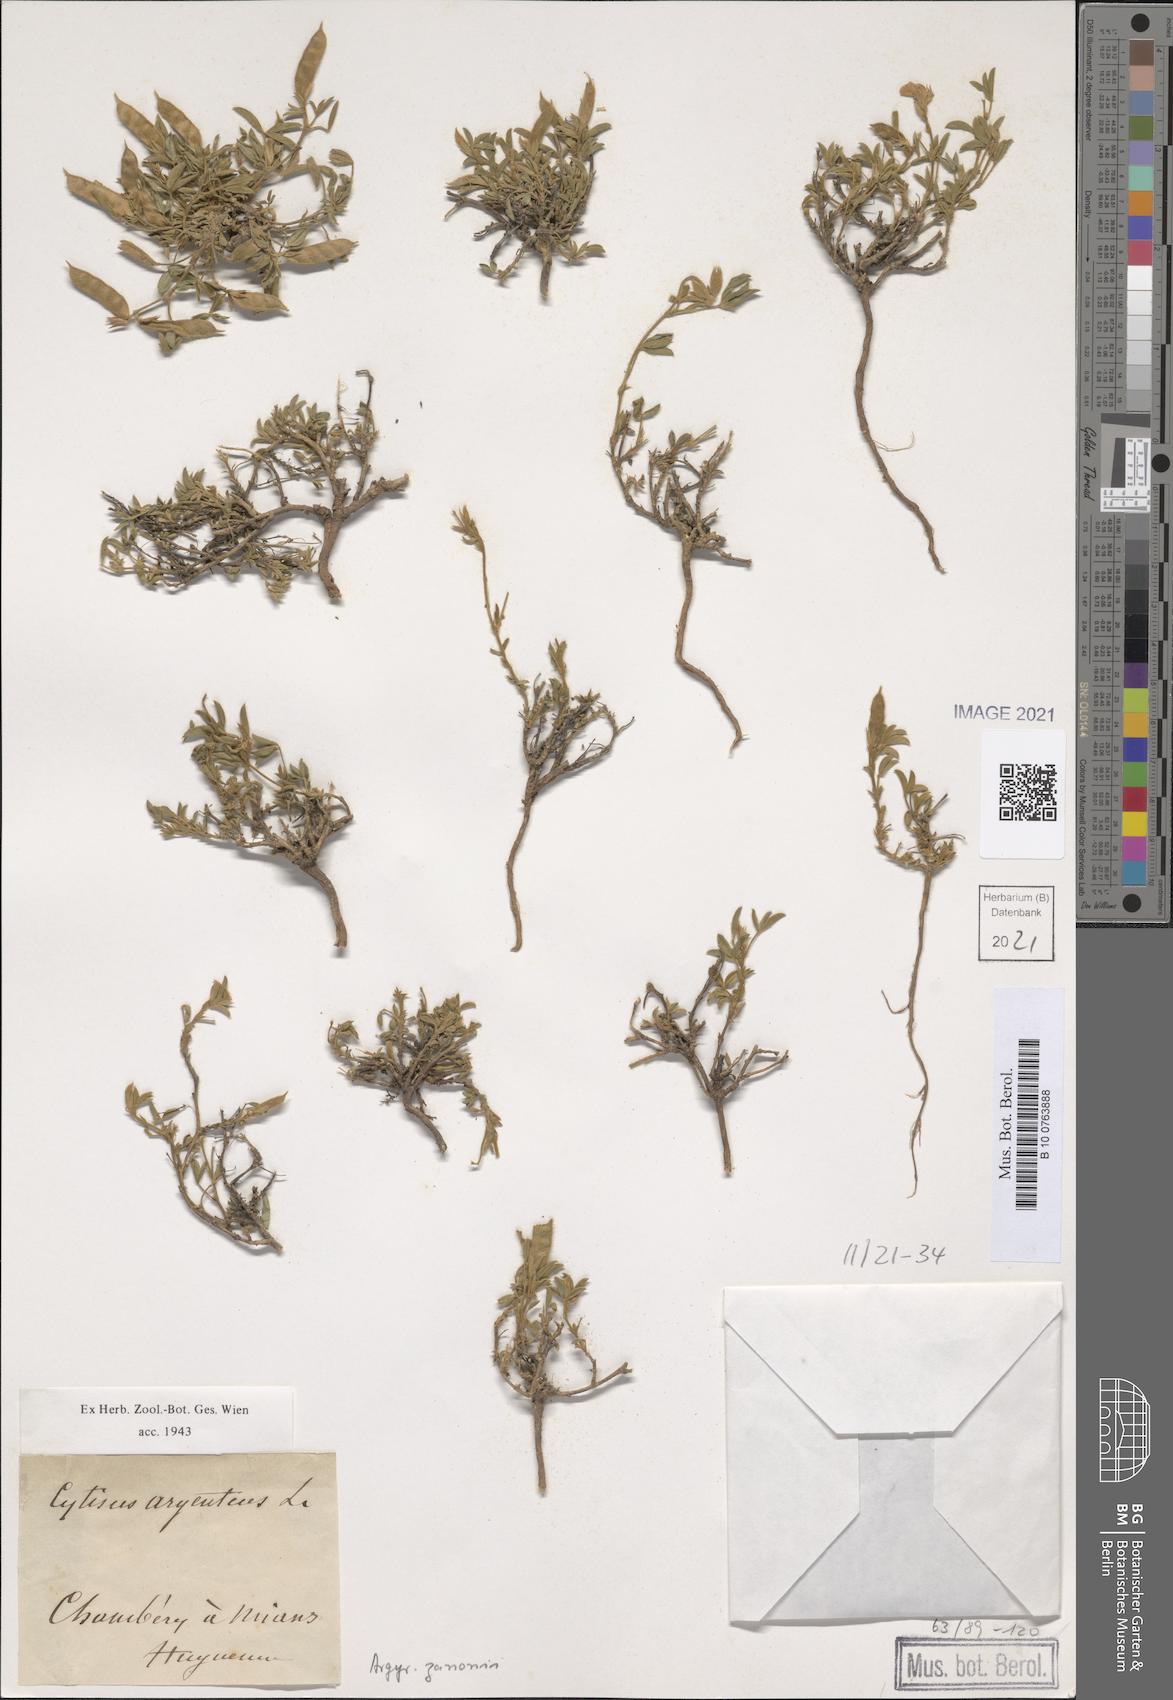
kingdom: Plantae
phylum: Tracheophyta
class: Magnoliopsida
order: Fabales
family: Fabaceae
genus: Argyrolobium
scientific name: Argyrolobium zanonii
